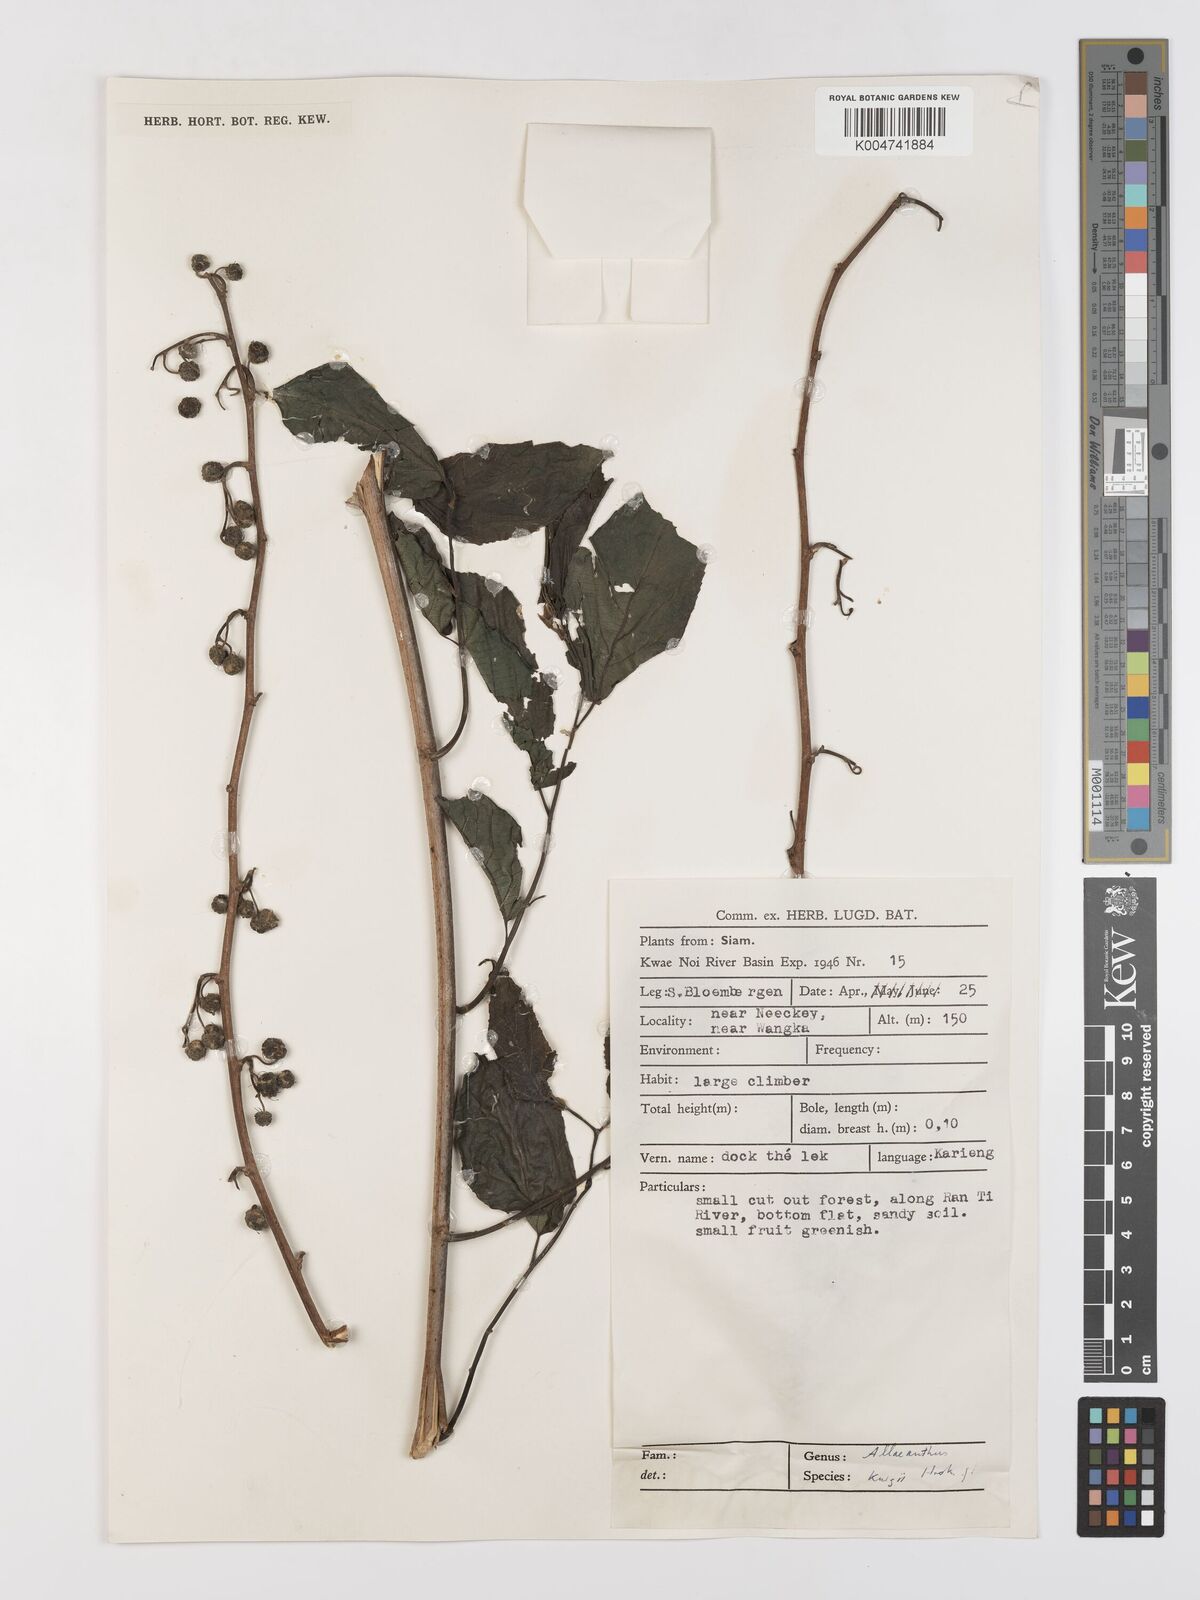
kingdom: Plantae
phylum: Tracheophyta
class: Magnoliopsida
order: Rosales
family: Moraceae
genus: Allaeanthus
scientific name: Allaeanthus kurzii
